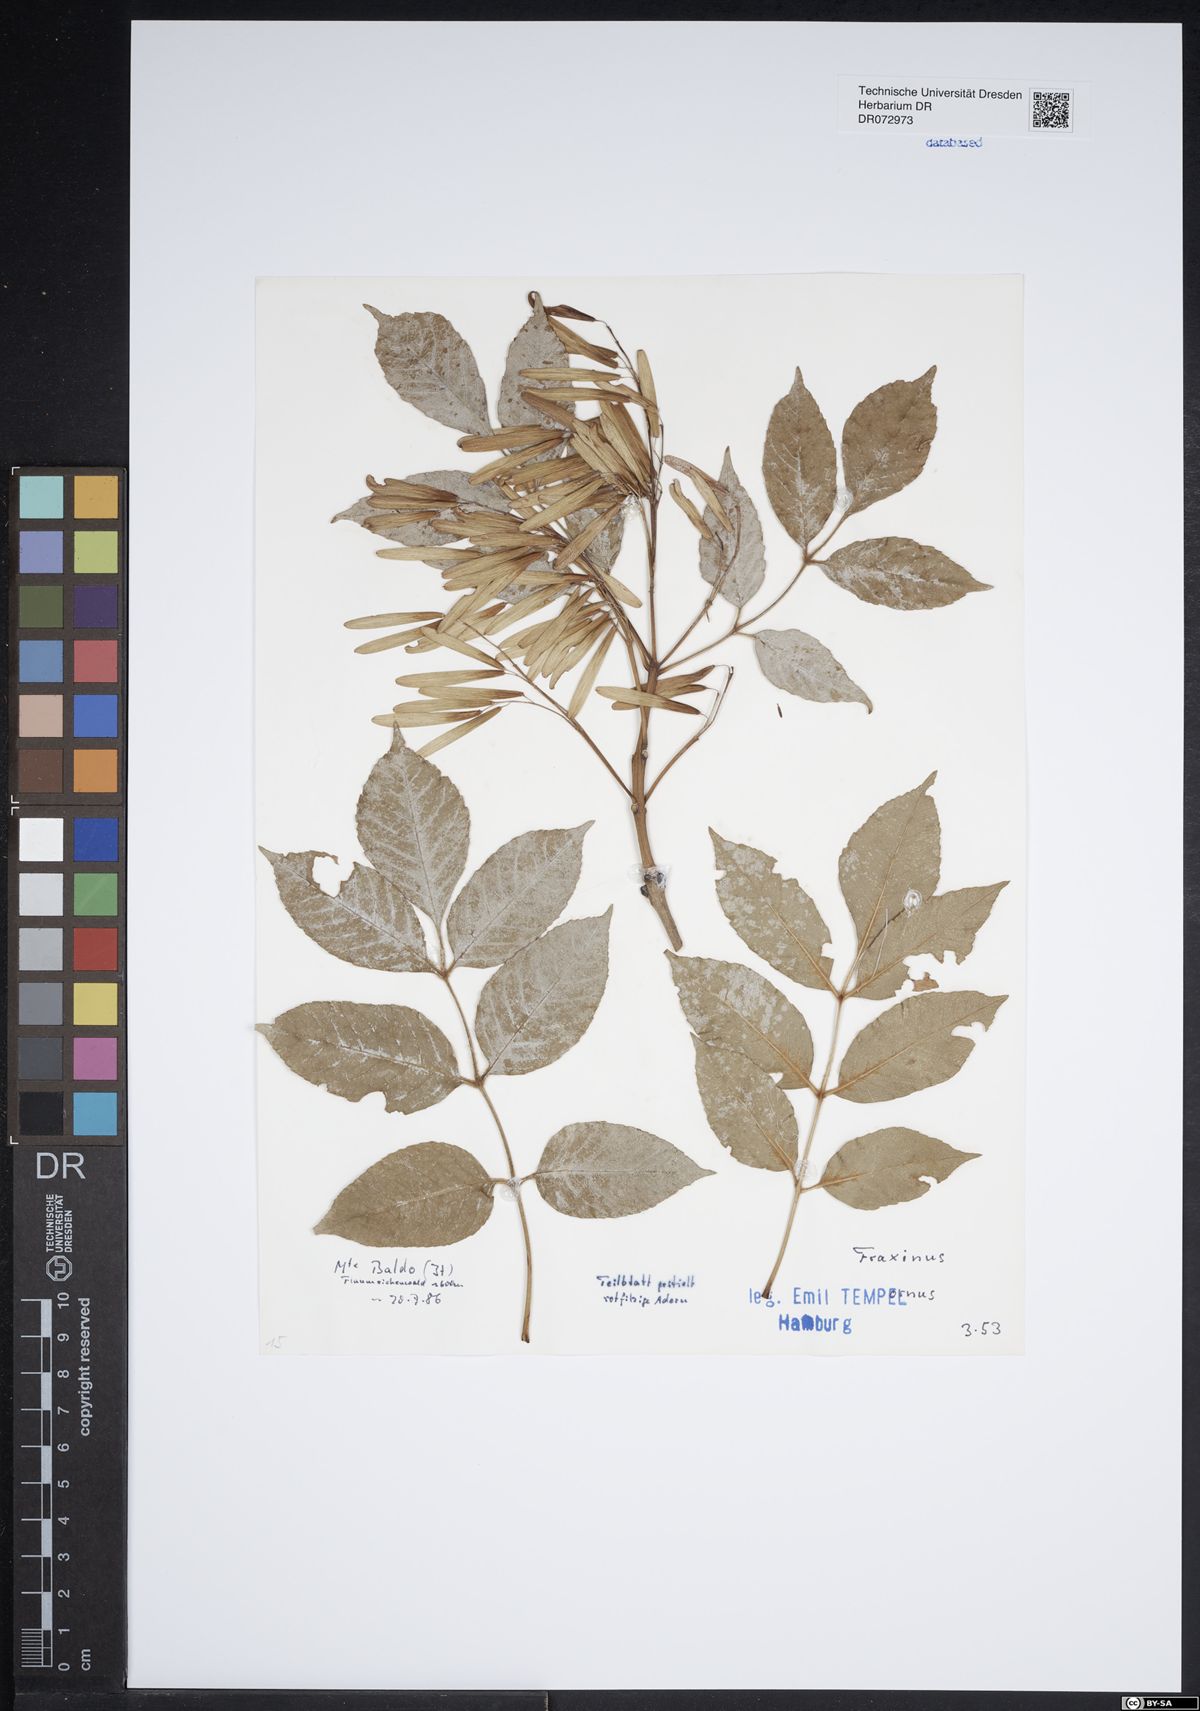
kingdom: Plantae
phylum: Tracheophyta
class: Magnoliopsida
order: Lamiales
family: Oleaceae
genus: Fraxinus
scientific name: Fraxinus ornus
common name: Manna ash
